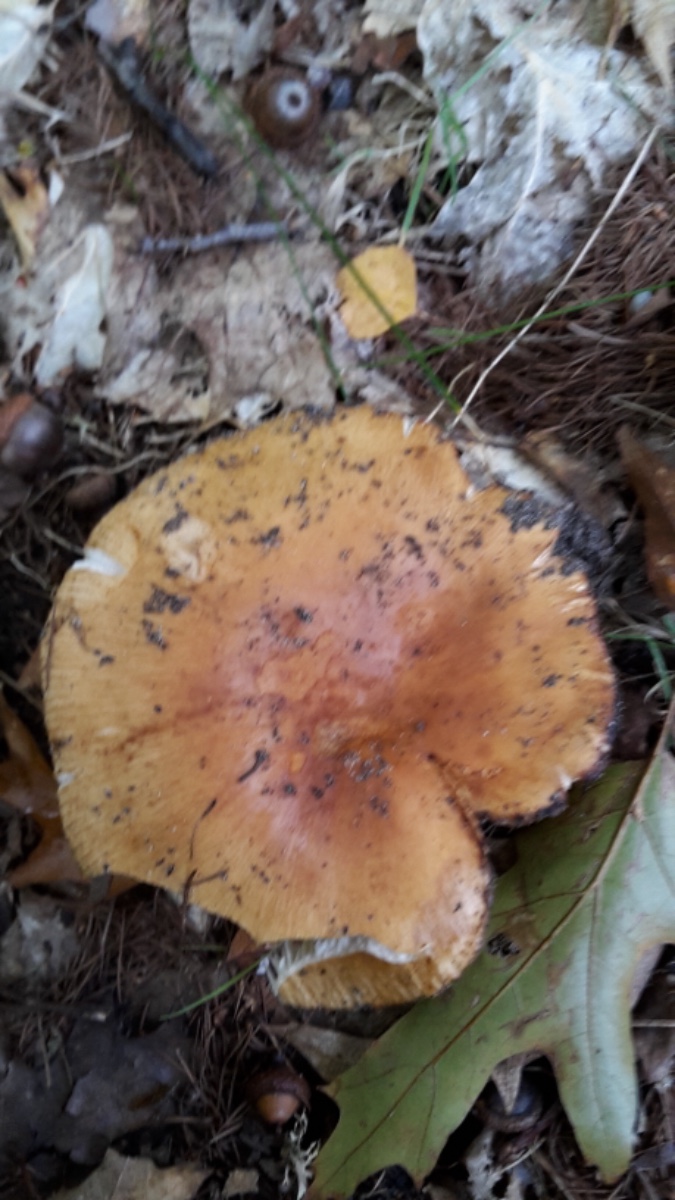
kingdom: Fungi
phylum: Basidiomycota
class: Agaricomycetes
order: Russulales
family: Russulaceae
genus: Russula
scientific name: Russula illota
